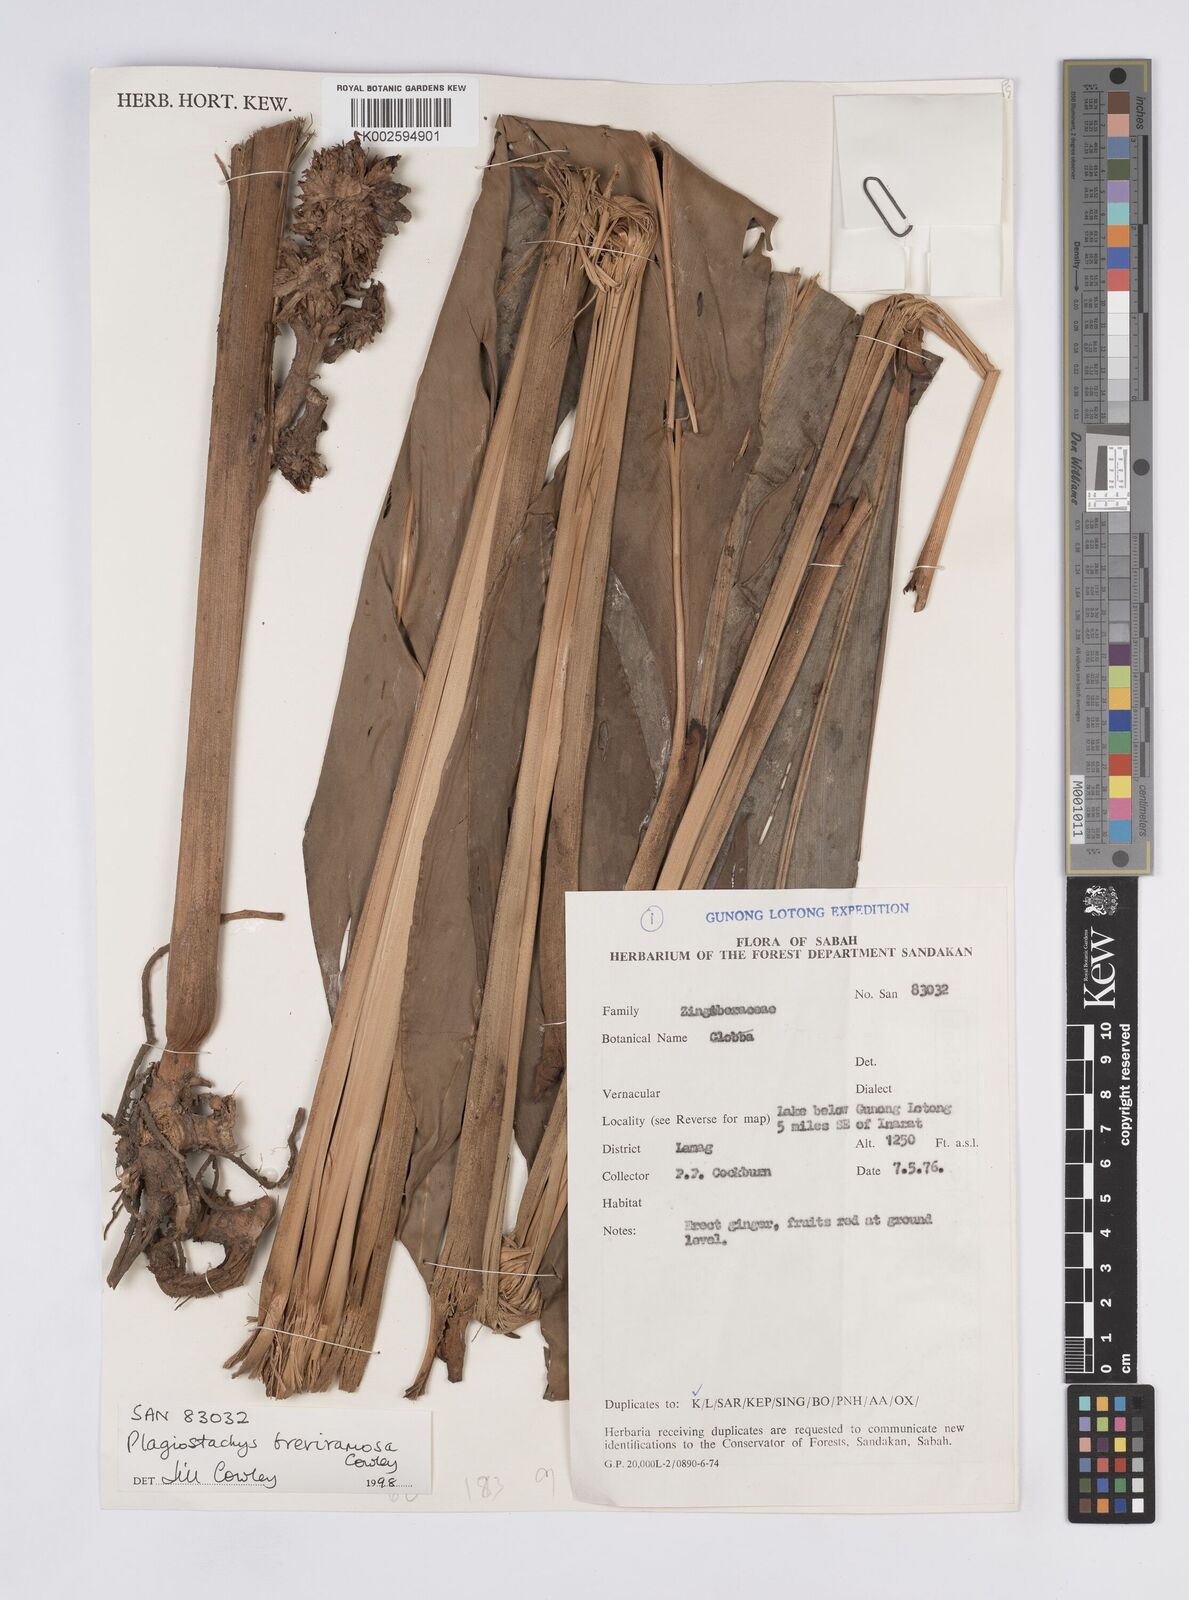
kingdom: Plantae
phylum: Tracheophyta
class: Liliopsida
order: Zingiberales
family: Zingiberaceae
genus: Plagiostachys
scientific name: Plagiostachys breviramosa
